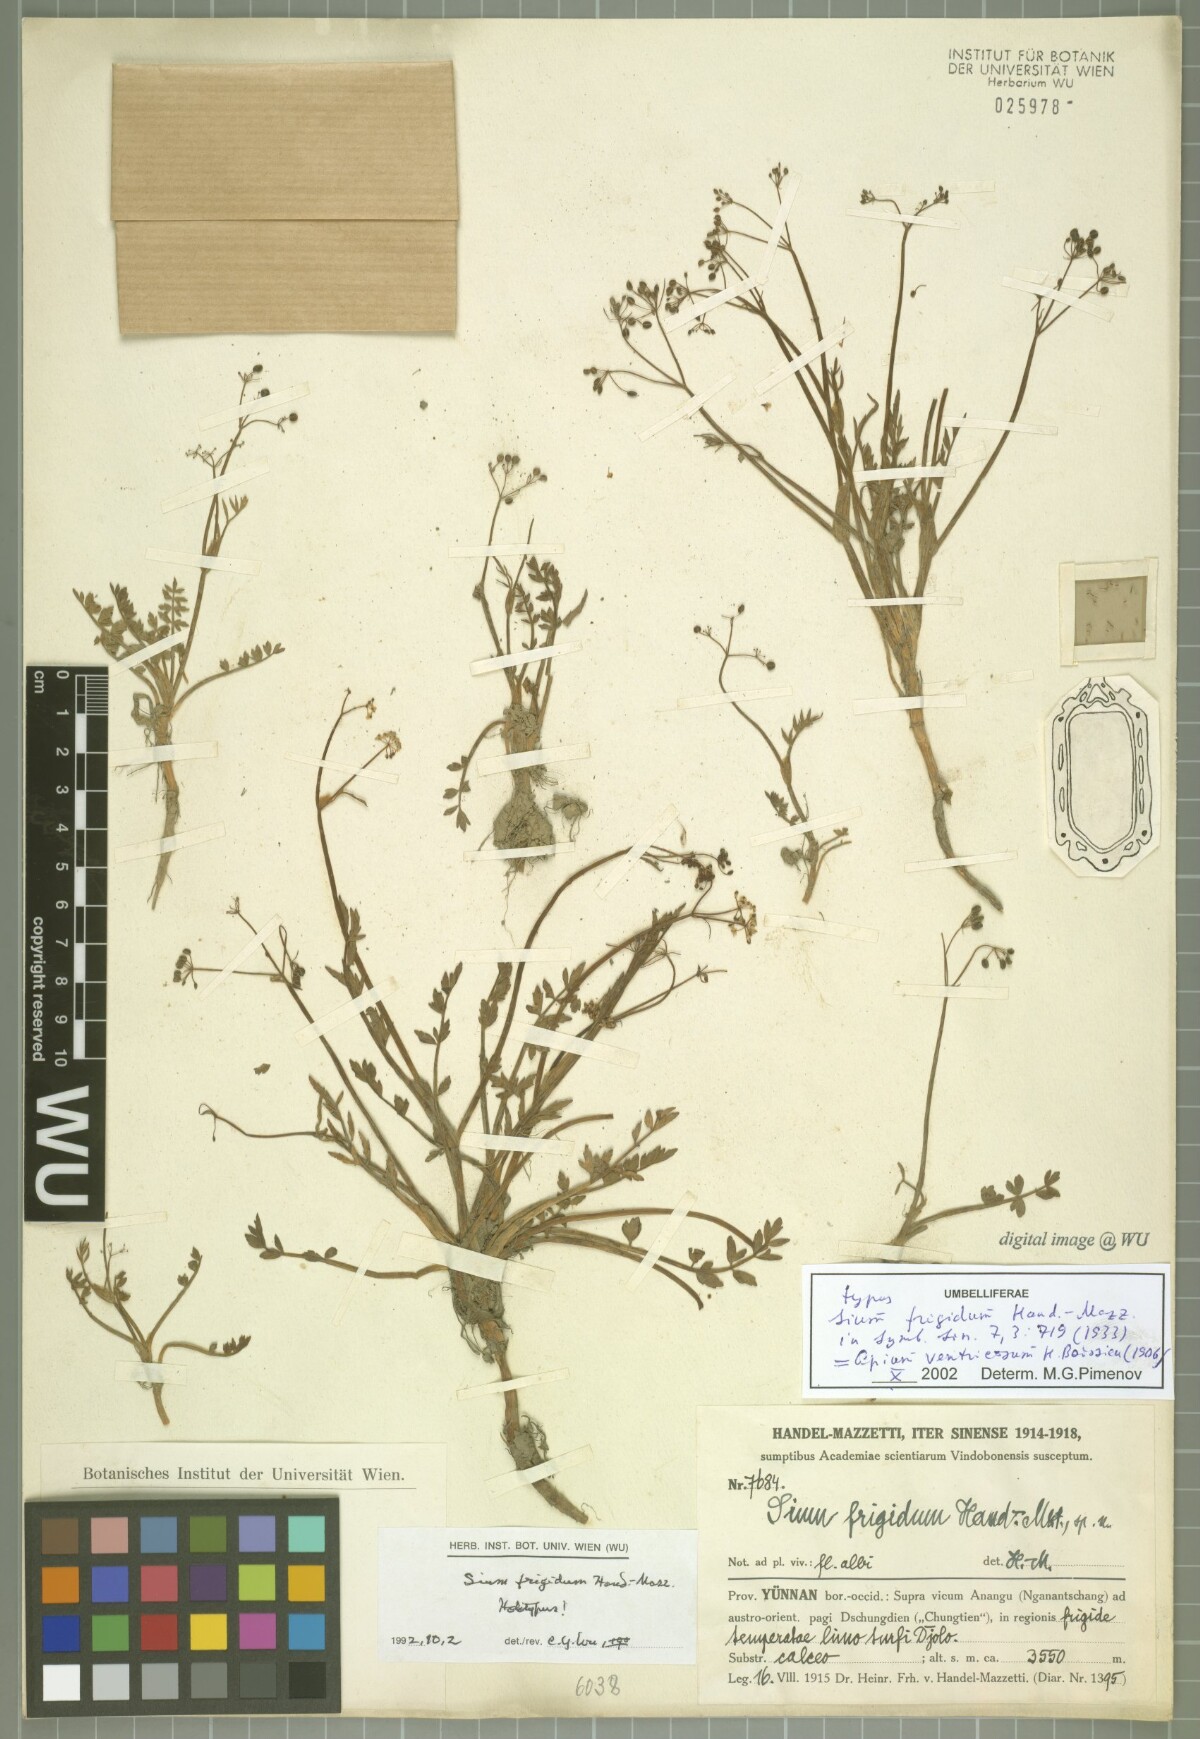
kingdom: Plantae
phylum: Tracheophyta
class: Magnoliopsida
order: Apiales
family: Apiaceae
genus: Sium
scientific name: Sium ventricosum
